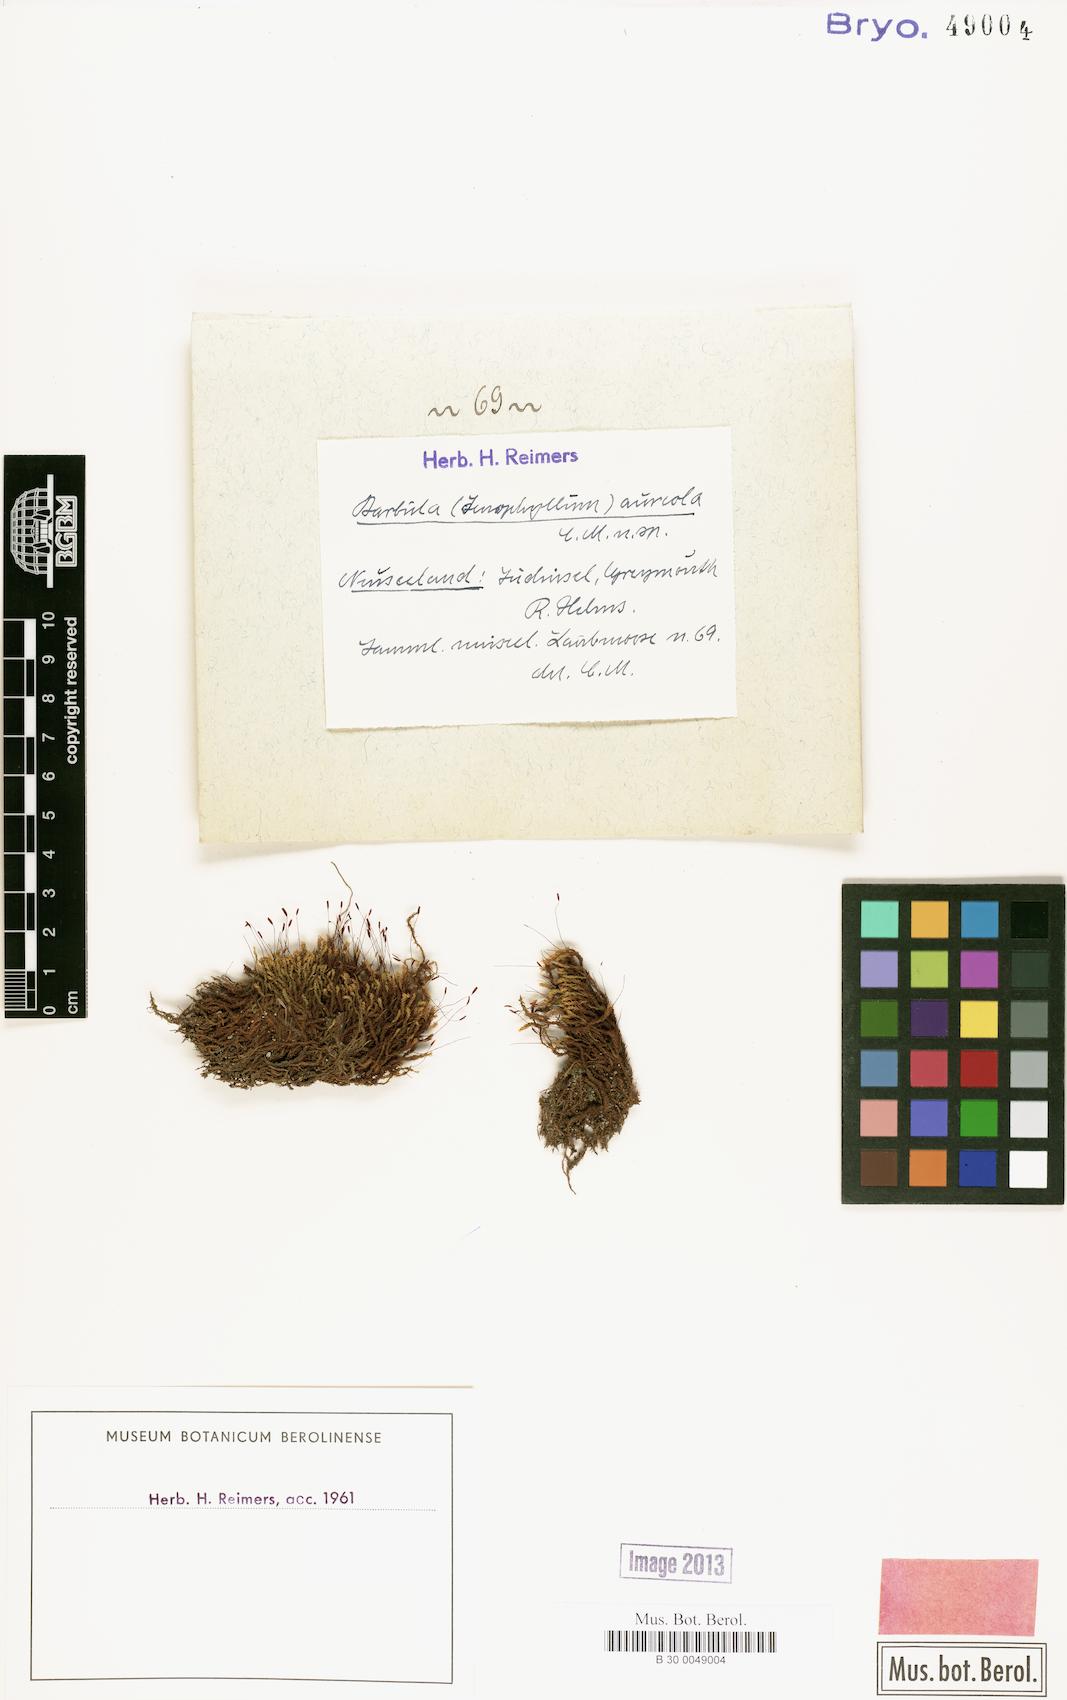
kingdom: Plantae
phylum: Bryophyta
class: Bryopsida
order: Pottiales
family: Pottiaceae
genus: Barbula
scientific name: Barbula aureola
